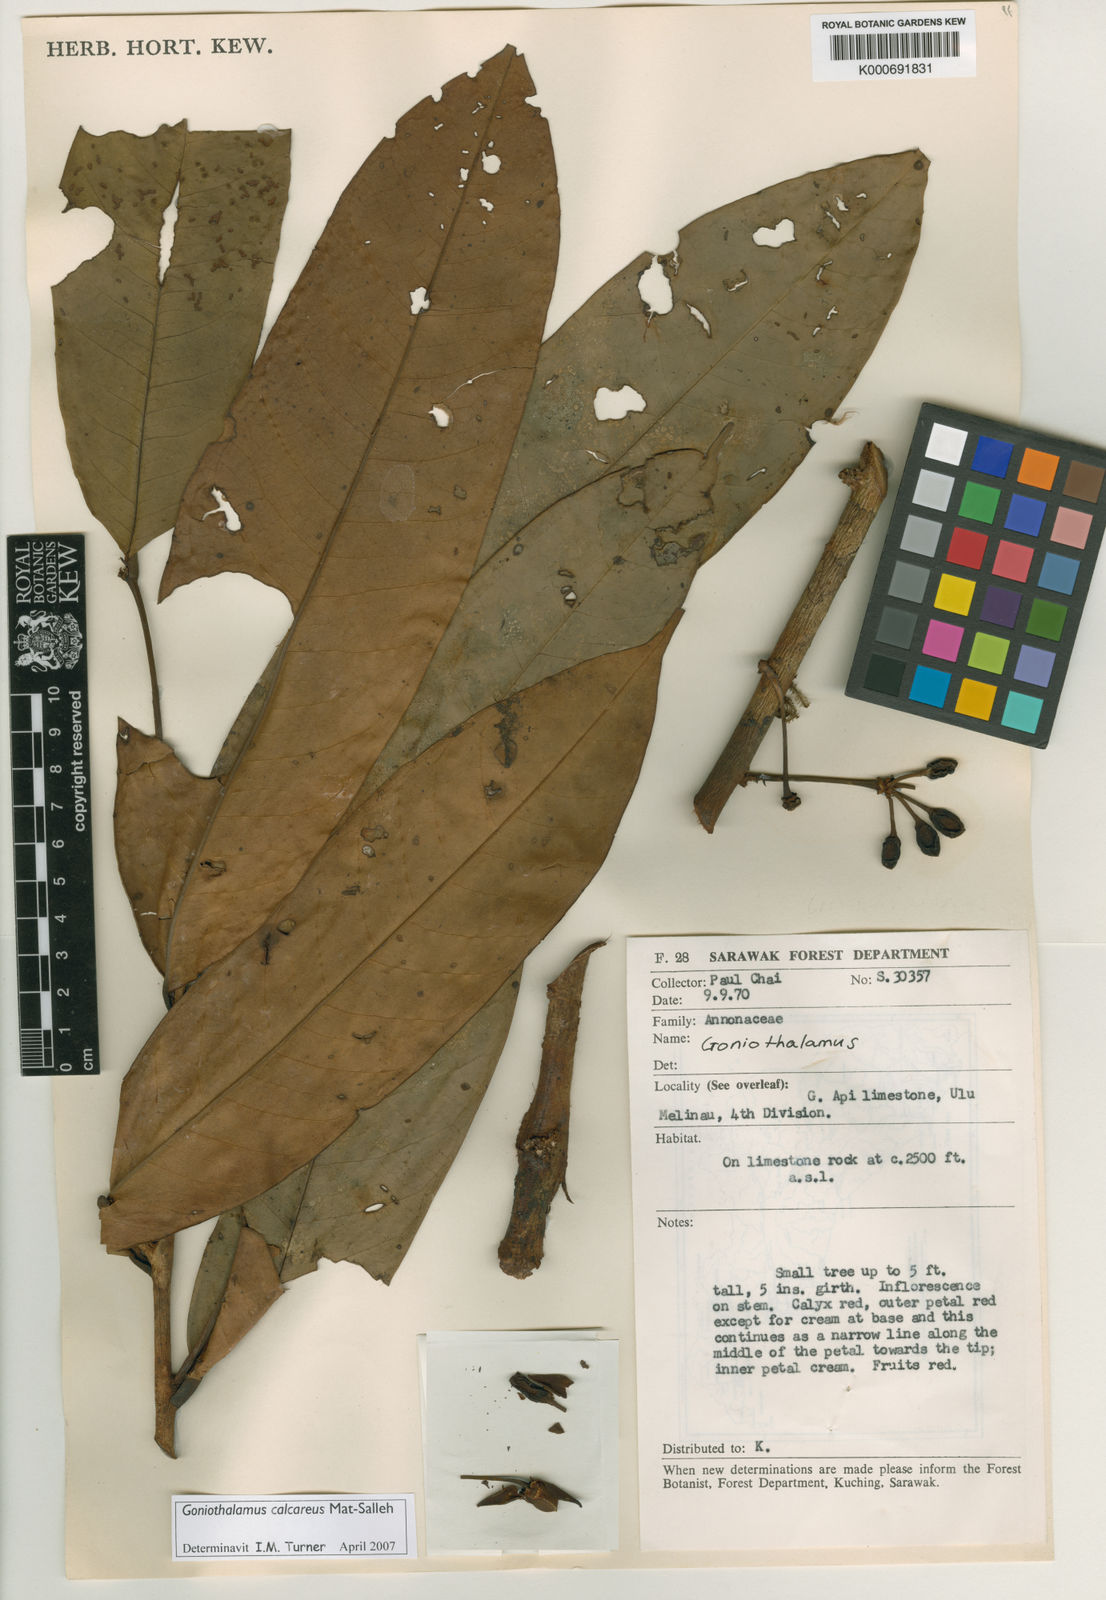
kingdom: Plantae
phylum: Tracheophyta
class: Magnoliopsida
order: Magnoliales
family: Annonaceae
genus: Goniothalamus
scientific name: Goniothalamus calcareus
